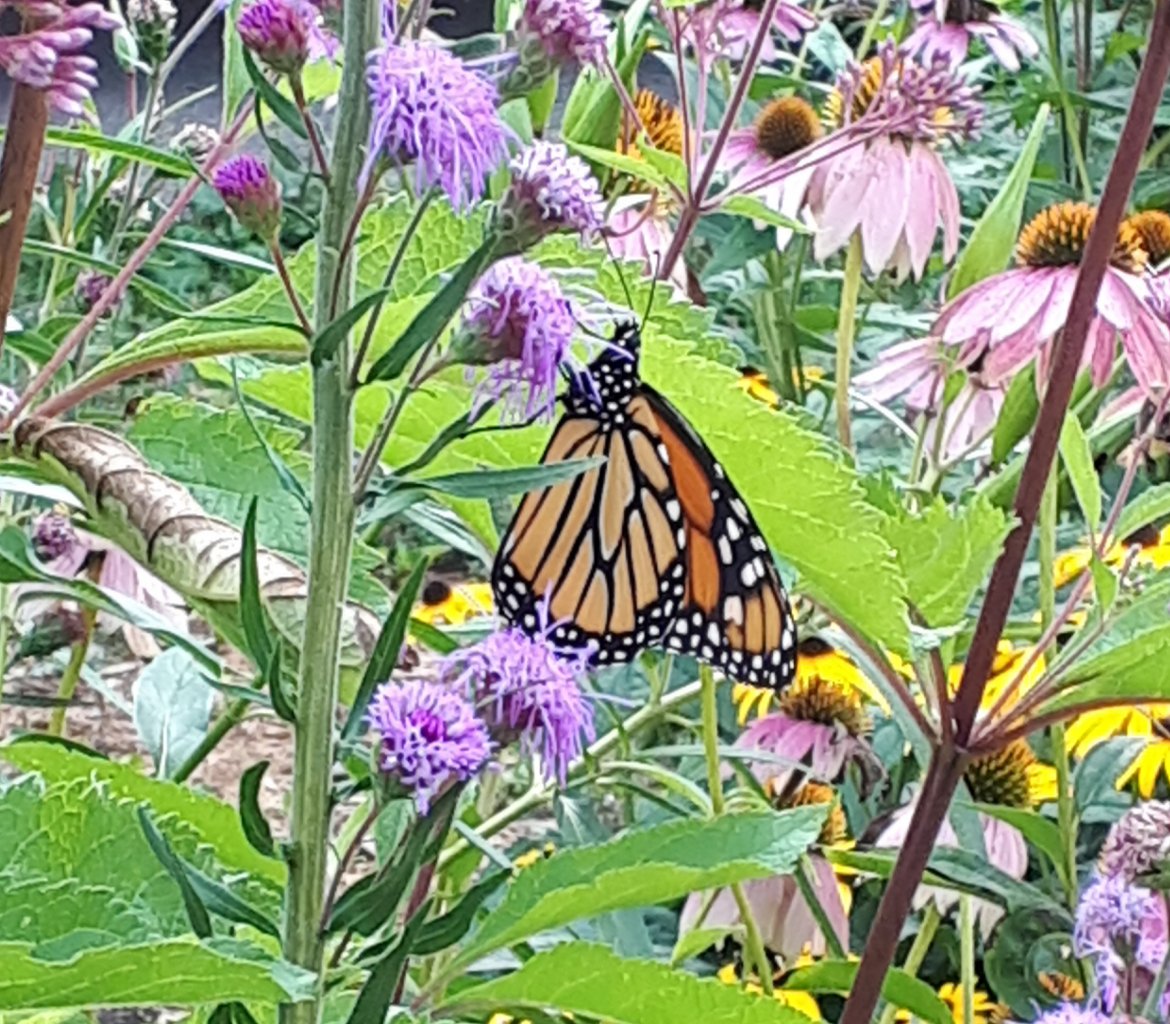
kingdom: Animalia
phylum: Arthropoda
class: Insecta
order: Lepidoptera
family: Nymphalidae
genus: Danaus
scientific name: Danaus plexippus
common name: Monarch
